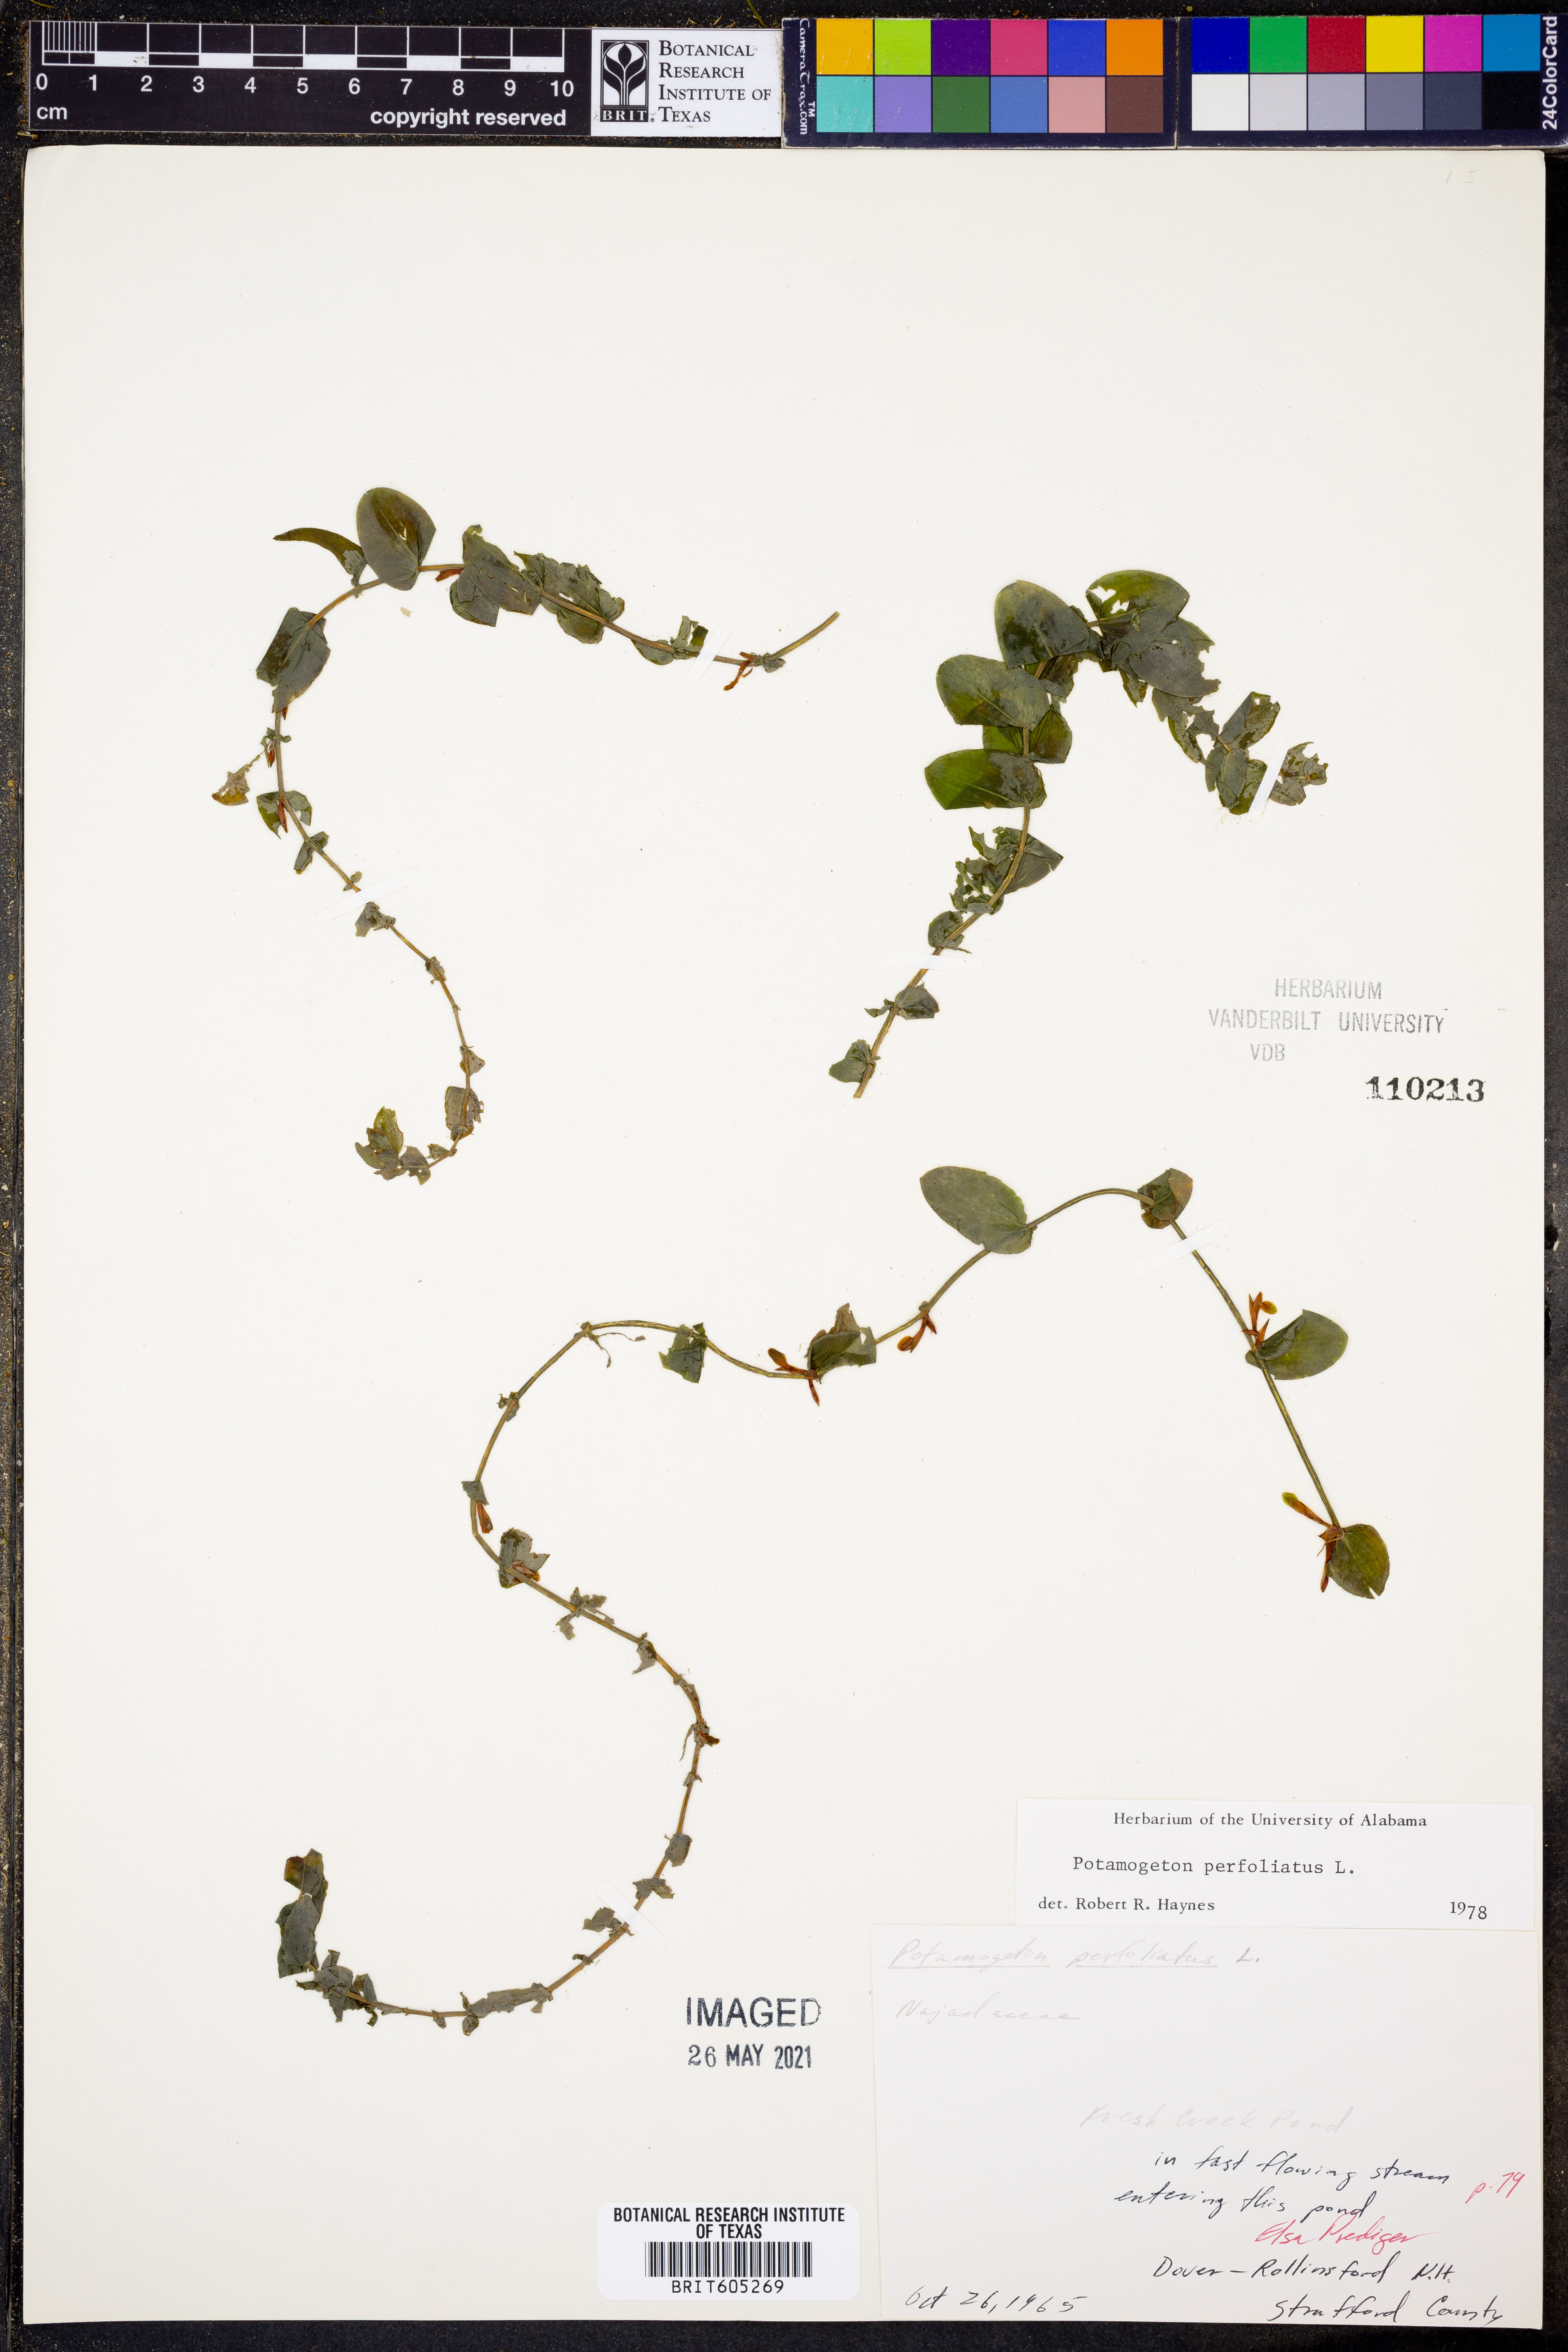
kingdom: Plantae
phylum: Tracheophyta
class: Liliopsida
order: Alismatales
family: Potamogetonaceae
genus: Potamogeton
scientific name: Potamogeton perfoliatus
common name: Perfoliate pondweed
